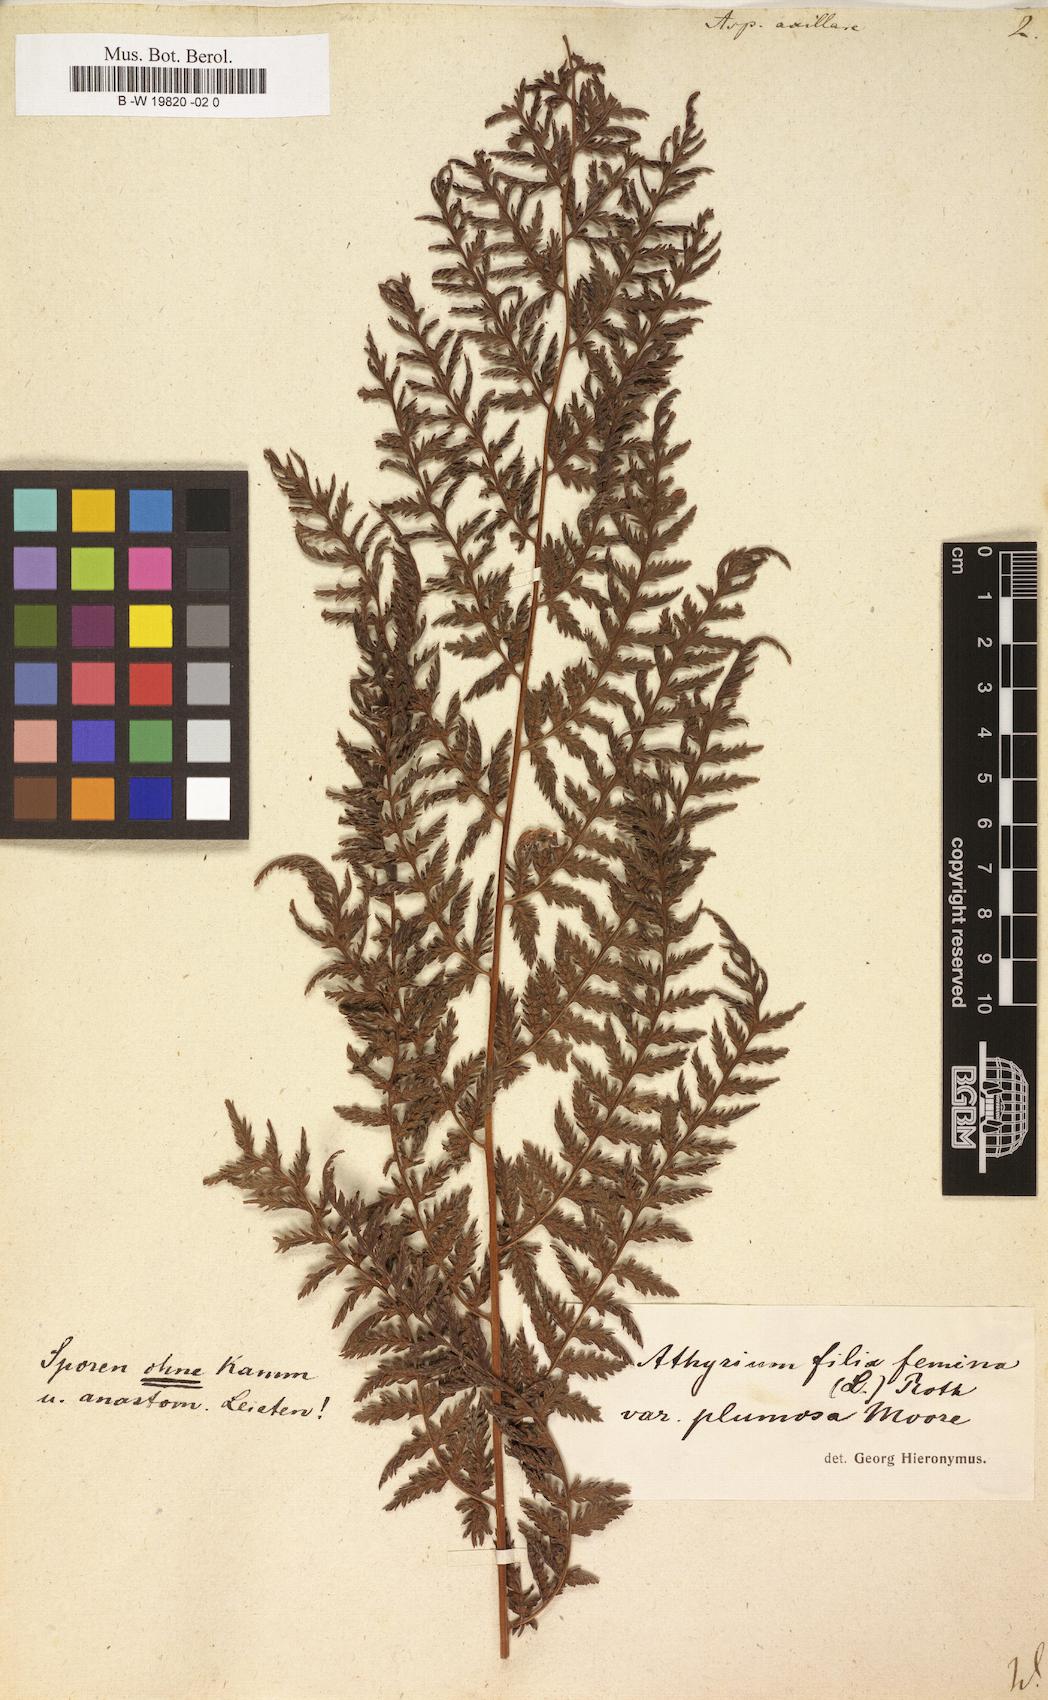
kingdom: Plantae
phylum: Tracheophyta
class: Polypodiopsida
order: Polypodiales
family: Athyriaceae
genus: Athyrium
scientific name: Athyrium filix-femina
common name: Lady fern
